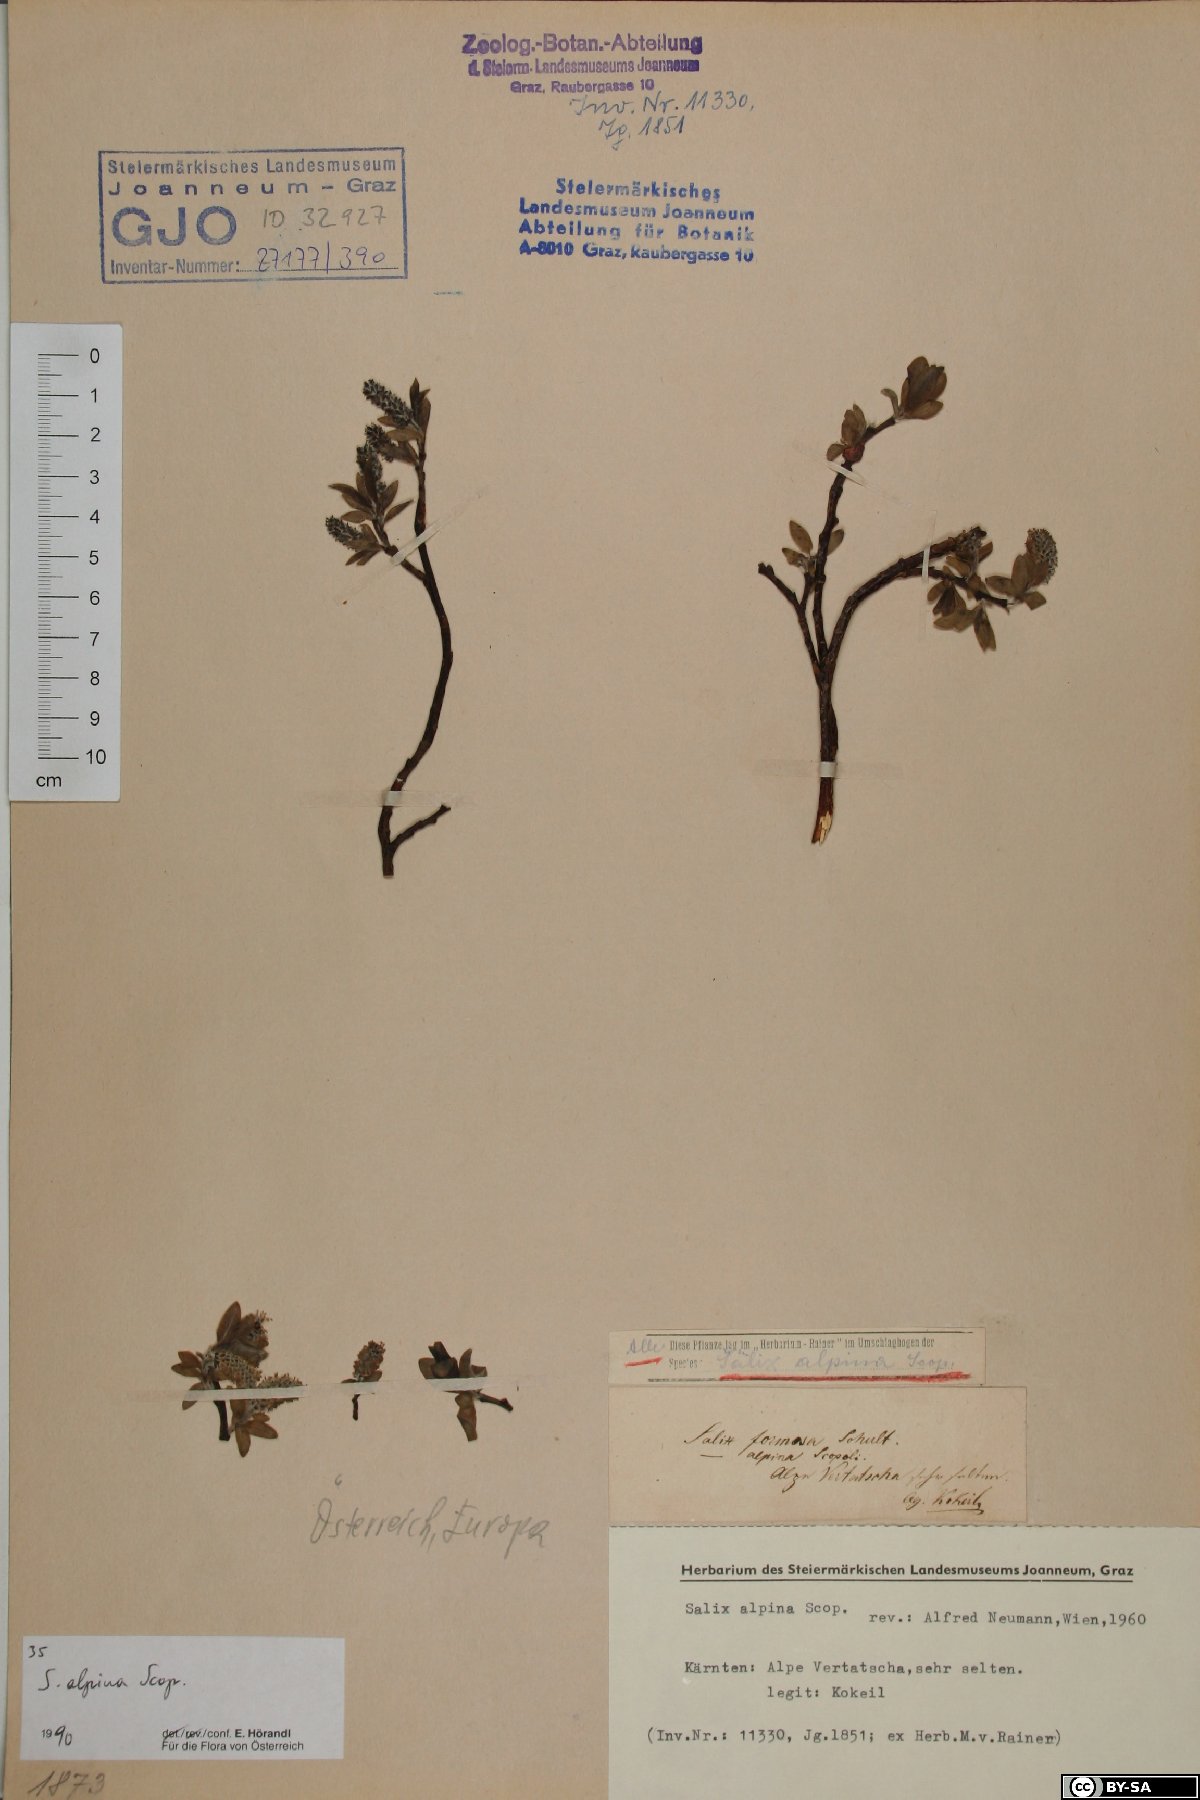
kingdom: Plantae
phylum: Tracheophyta
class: Magnoliopsida
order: Malpighiales
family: Salicaceae
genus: Salix
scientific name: Salix alpina
